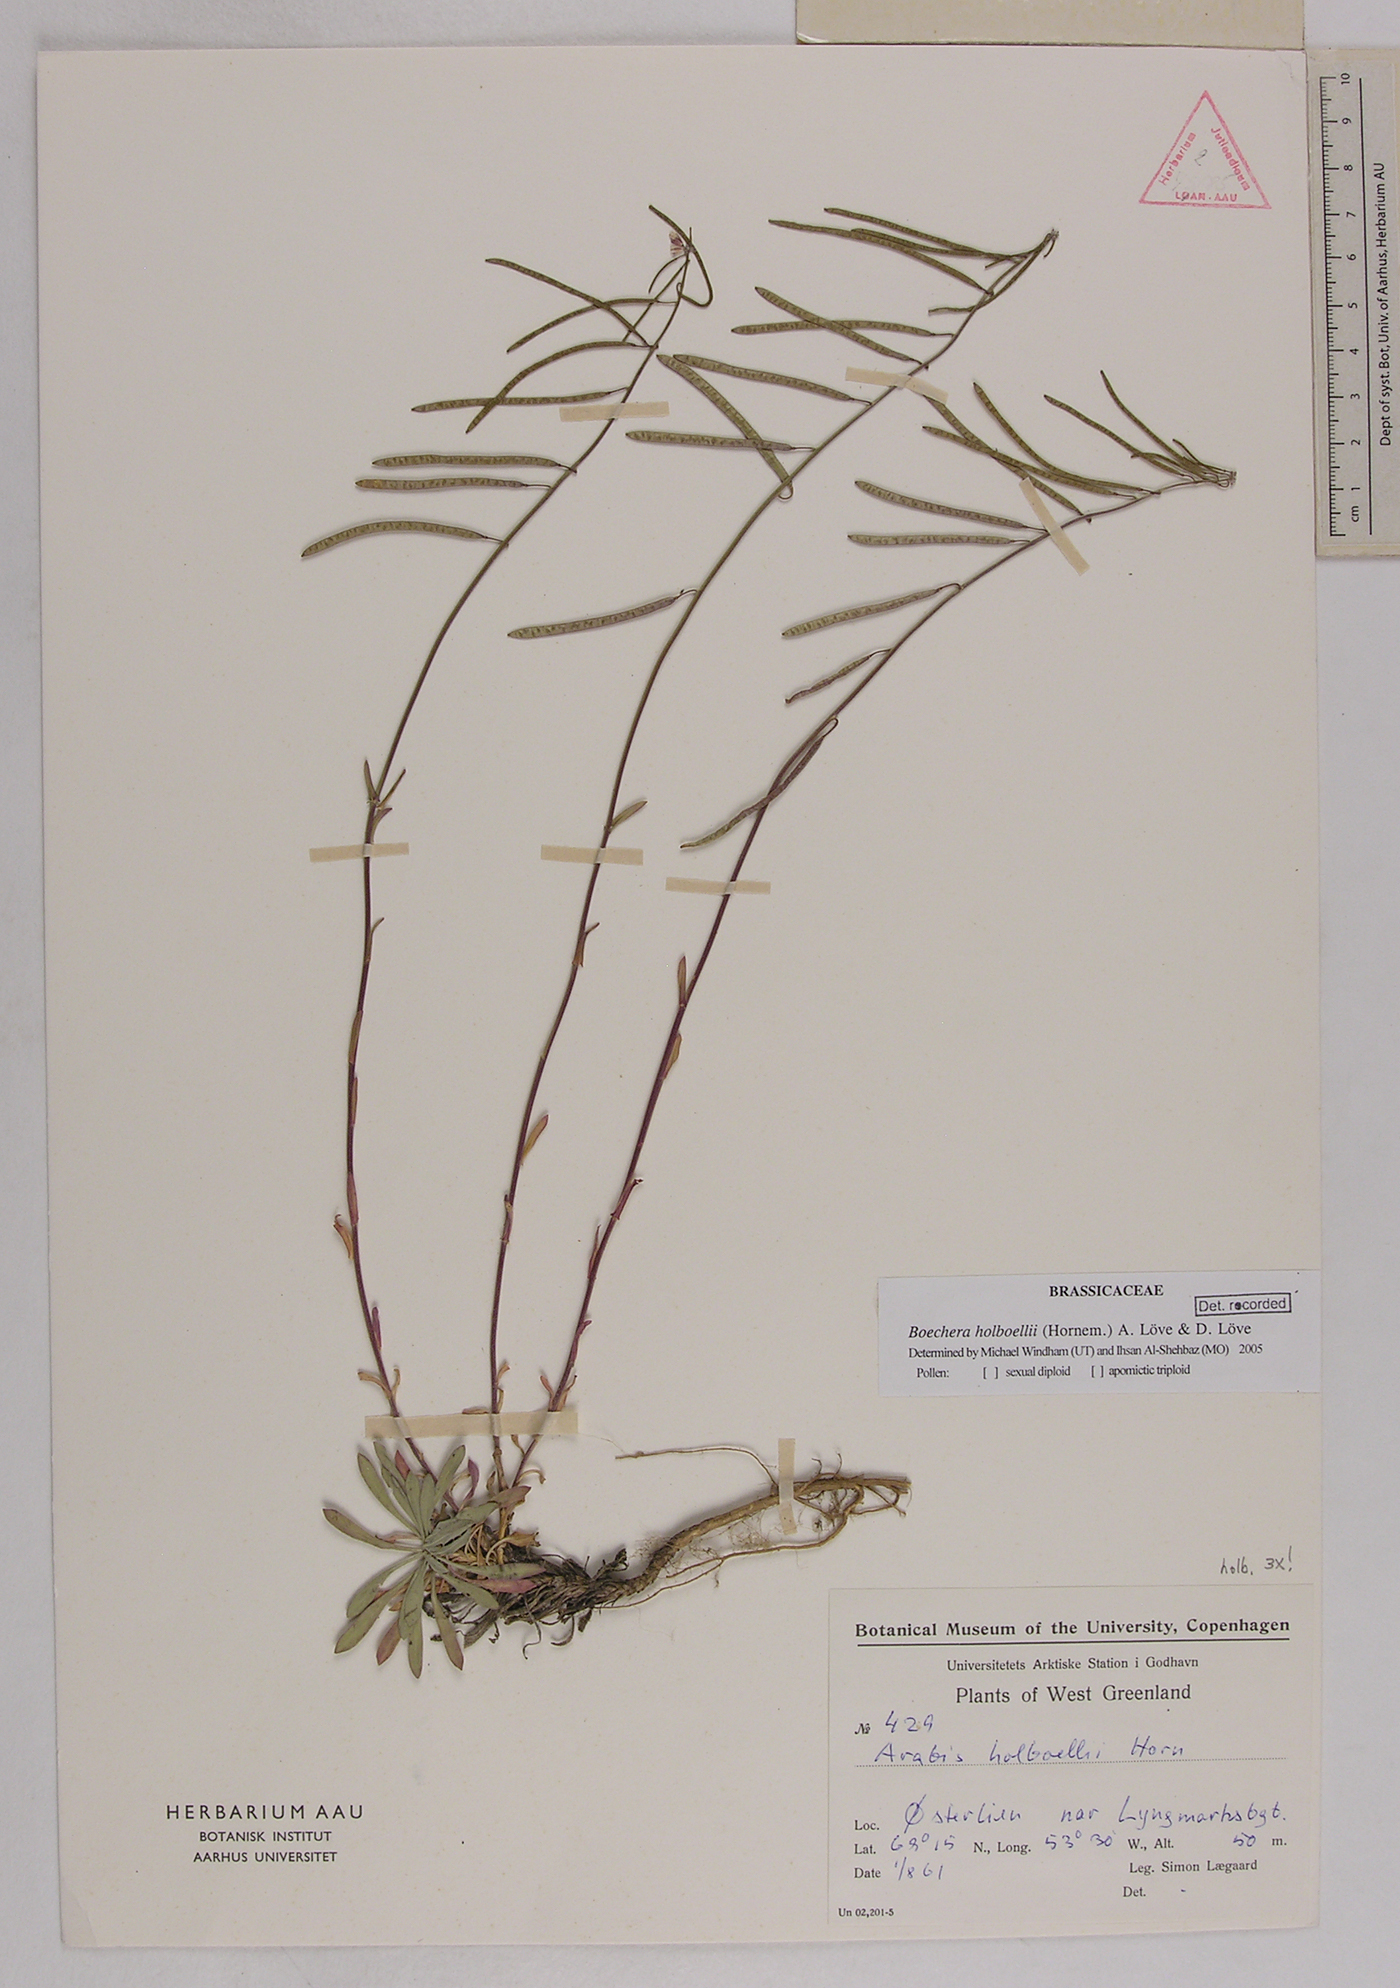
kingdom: Plantae
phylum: Tracheophyta
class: Magnoliopsida
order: Brassicales
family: Brassicaceae
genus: Boechera
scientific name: Boechera holboellii
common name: Holboell's rockcress
